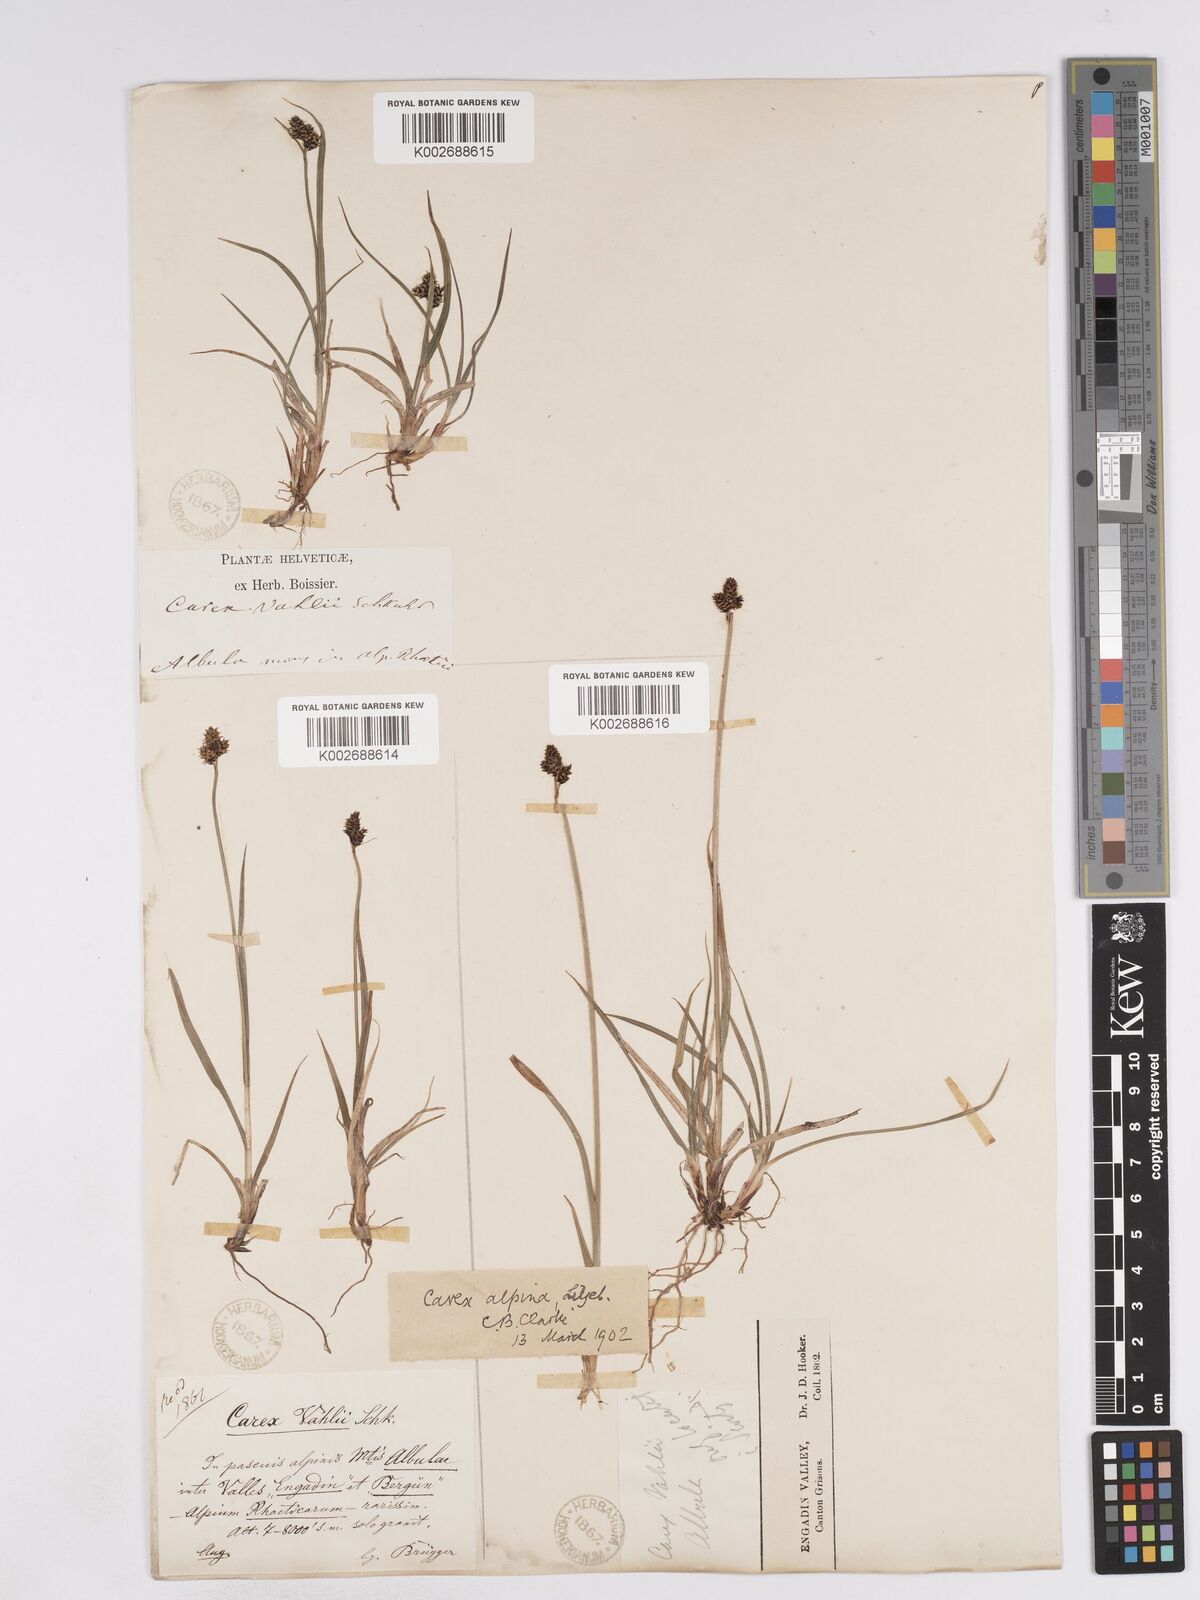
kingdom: Plantae
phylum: Tracheophyta
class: Liliopsida
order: Poales
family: Cyperaceae
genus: Carex
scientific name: Carex norvegica
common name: Close-headed alpine-sedge
